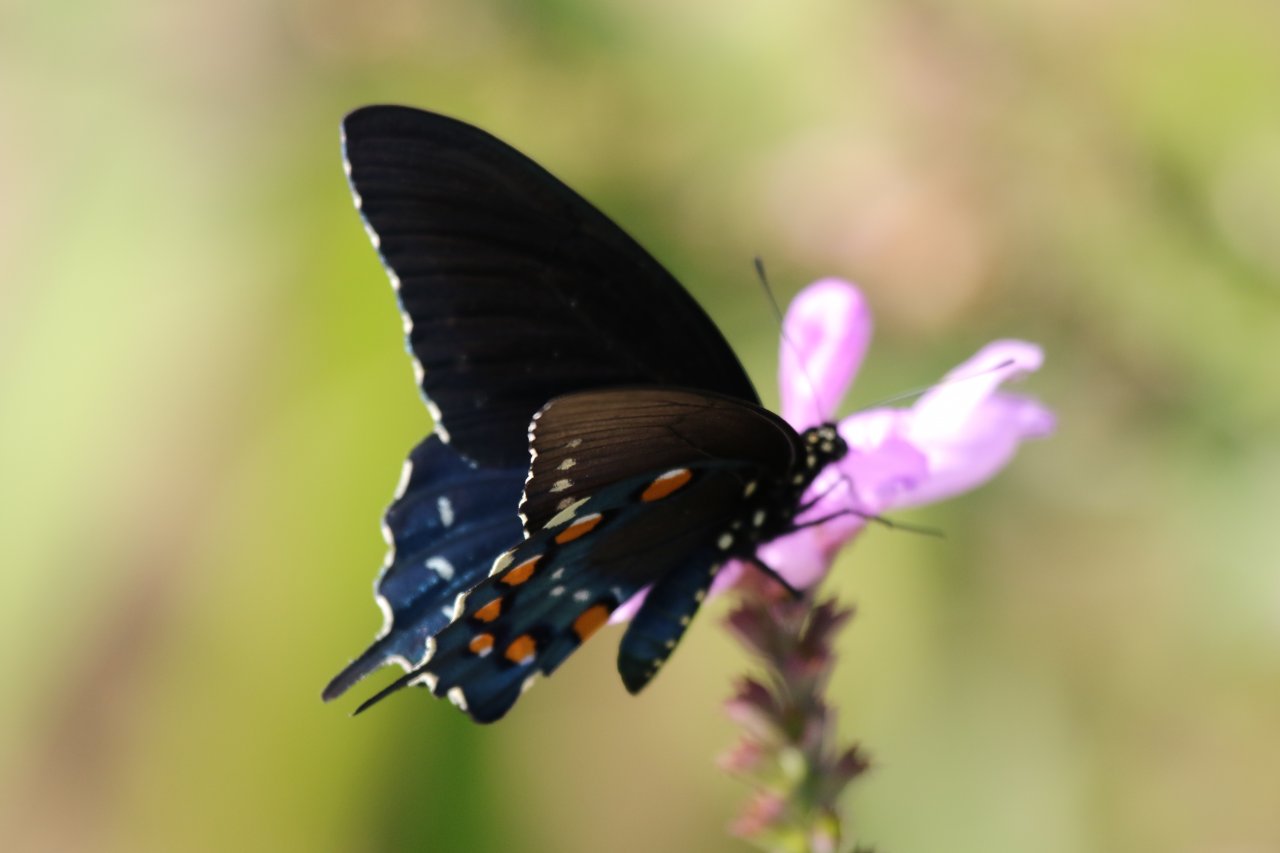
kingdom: Animalia
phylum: Arthropoda
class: Insecta
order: Lepidoptera
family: Papilionidae
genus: Battus
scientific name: Battus philenor
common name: Pipevine Swallowtail
